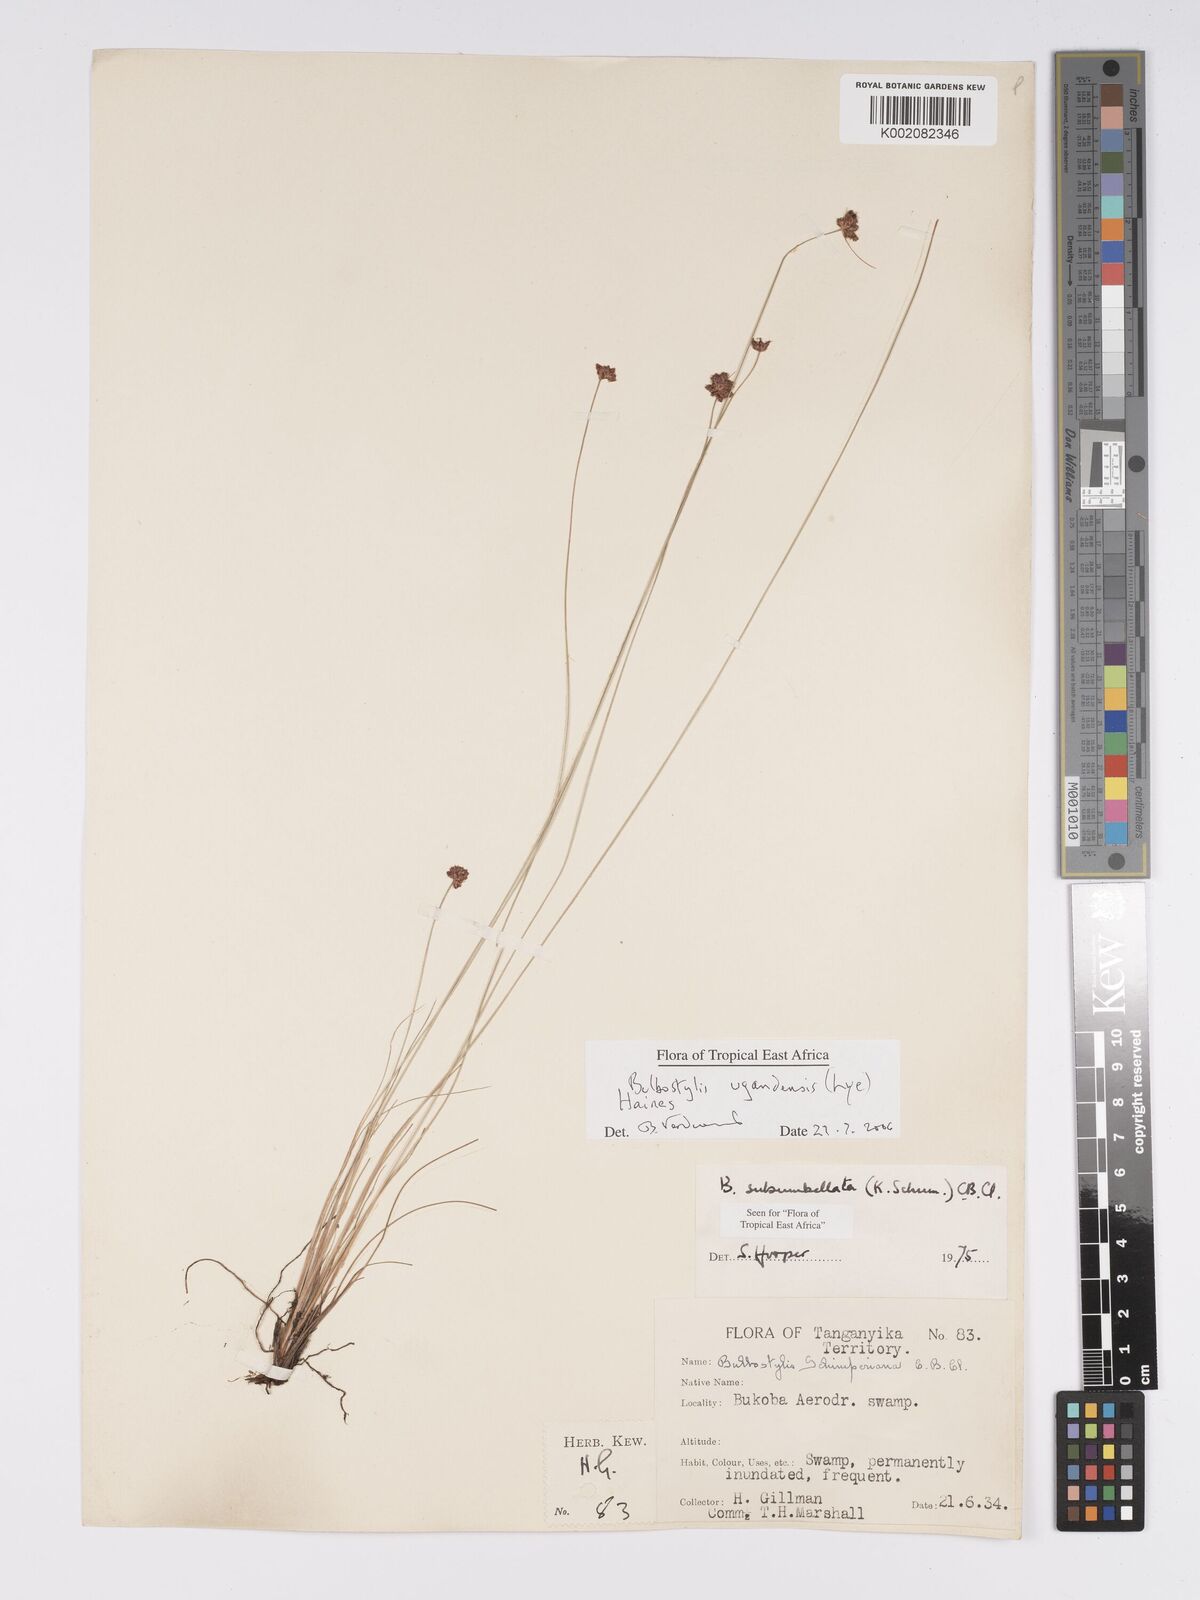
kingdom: Plantae
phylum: Tracheophyta
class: Liliopsida
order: Poales
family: Cyperaceae
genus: Bulbostylis
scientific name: Bulbostylis ugandensis
